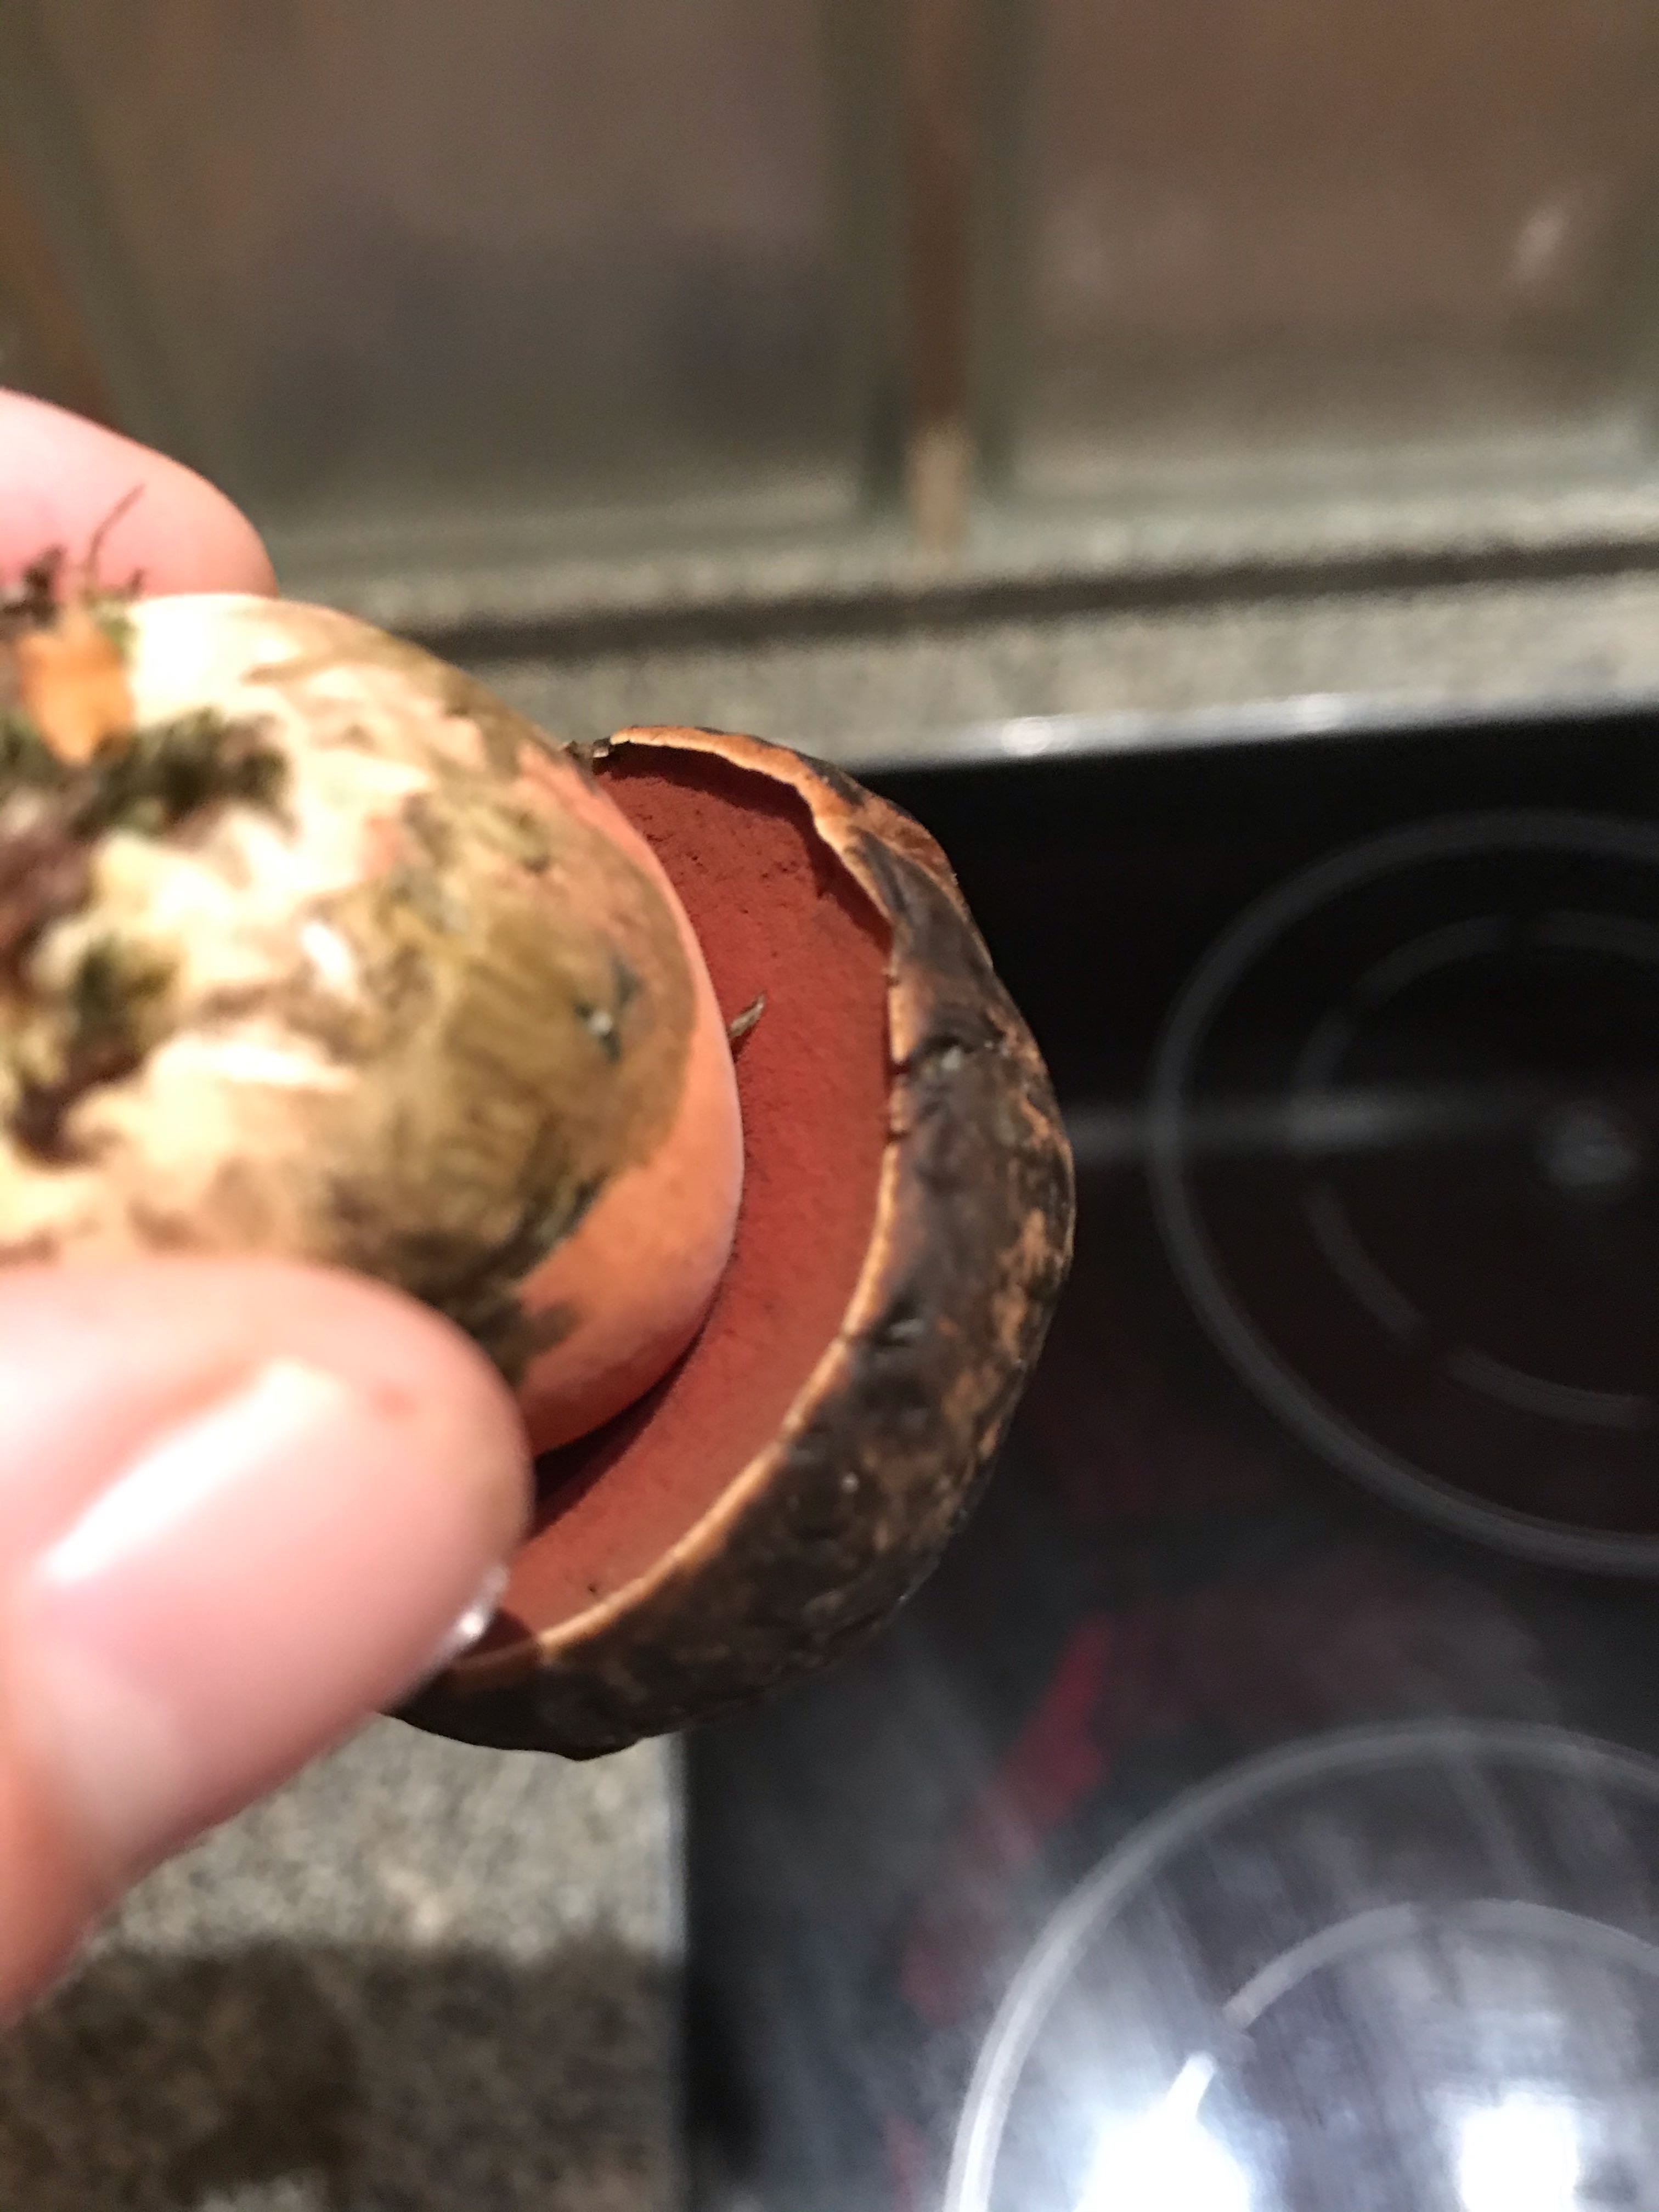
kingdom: Fungi
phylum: Basidiomycota
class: Agaricomycetes
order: Boletales
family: Boletaceae
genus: Neoboletus
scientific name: Neoboletus erythropus
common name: punktstokket indigorørhat
